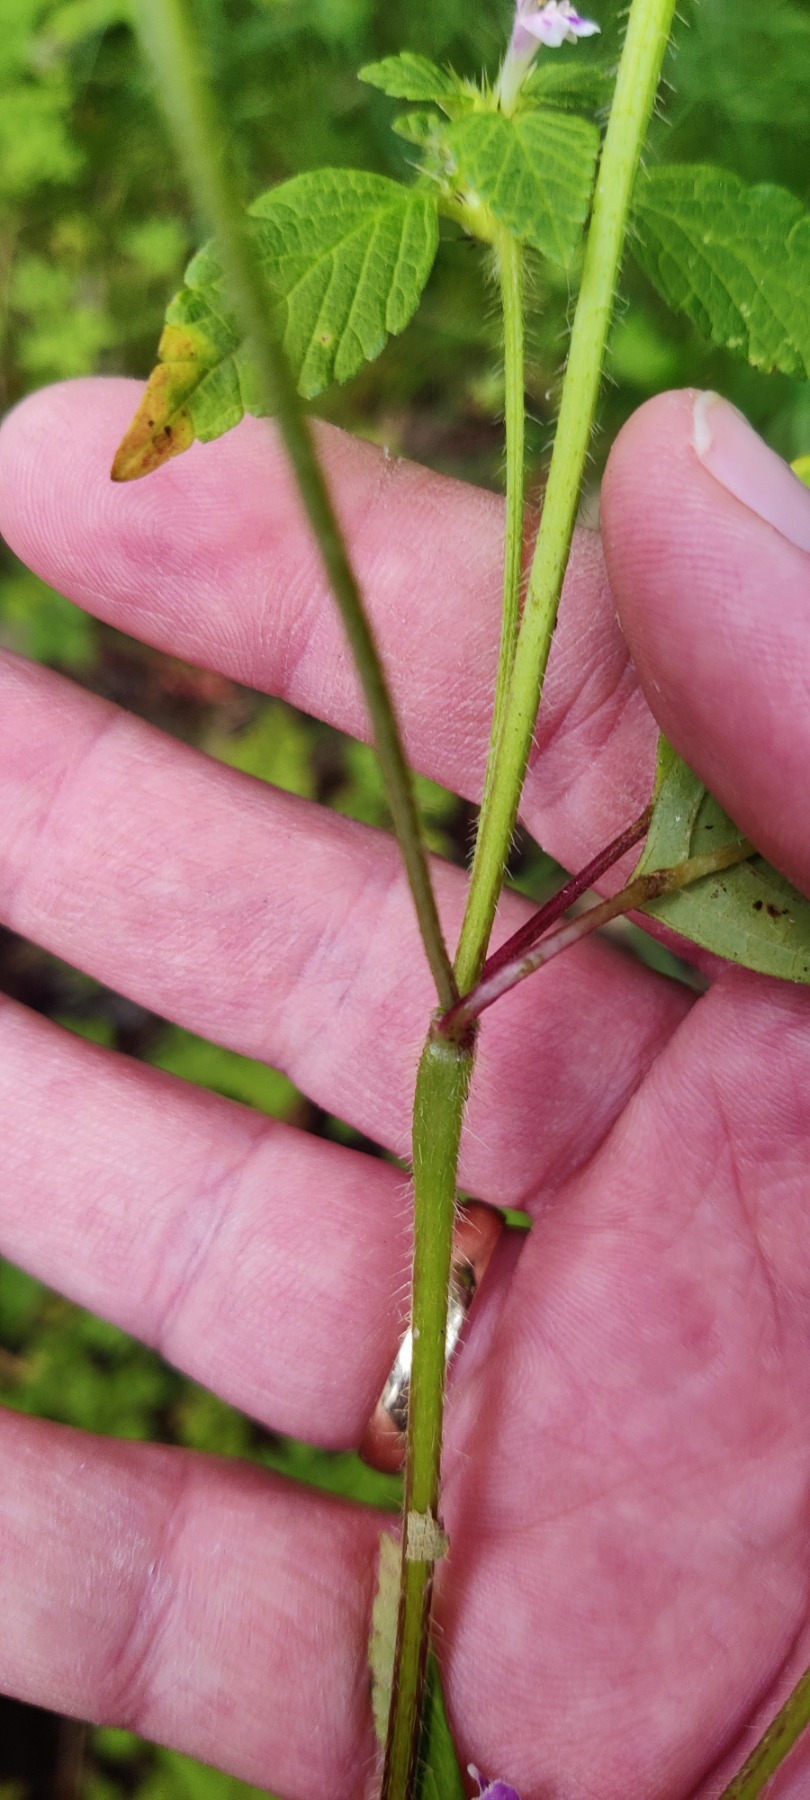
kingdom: Plantae
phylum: Tracheophyta
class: Magnoliopsida
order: Lamiales
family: Lamiaceae
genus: Galeopsis
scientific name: Galeopsis bifida
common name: Skov-hanekro
